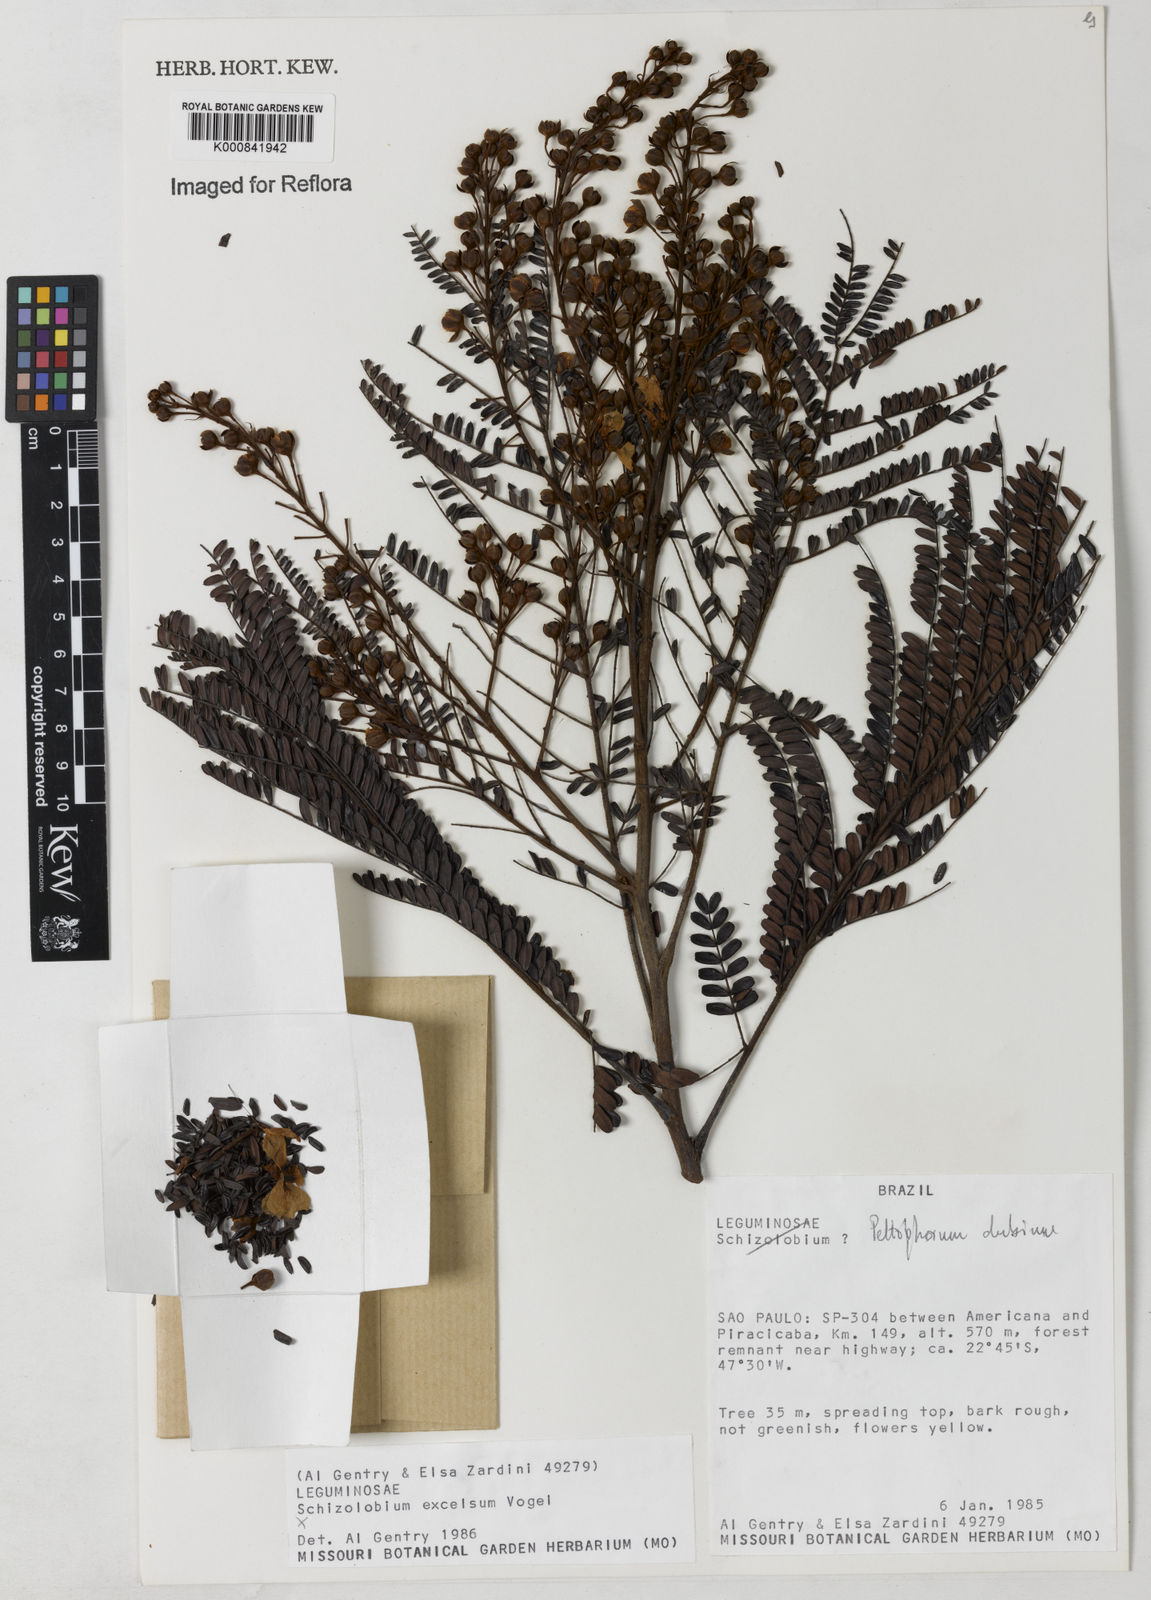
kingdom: Plantae
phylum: Tracheophyta
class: Magnoliopsida
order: Fabales
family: Fabaceae
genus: Peltophorum
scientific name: Peltophorum dubium
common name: Horsebush
